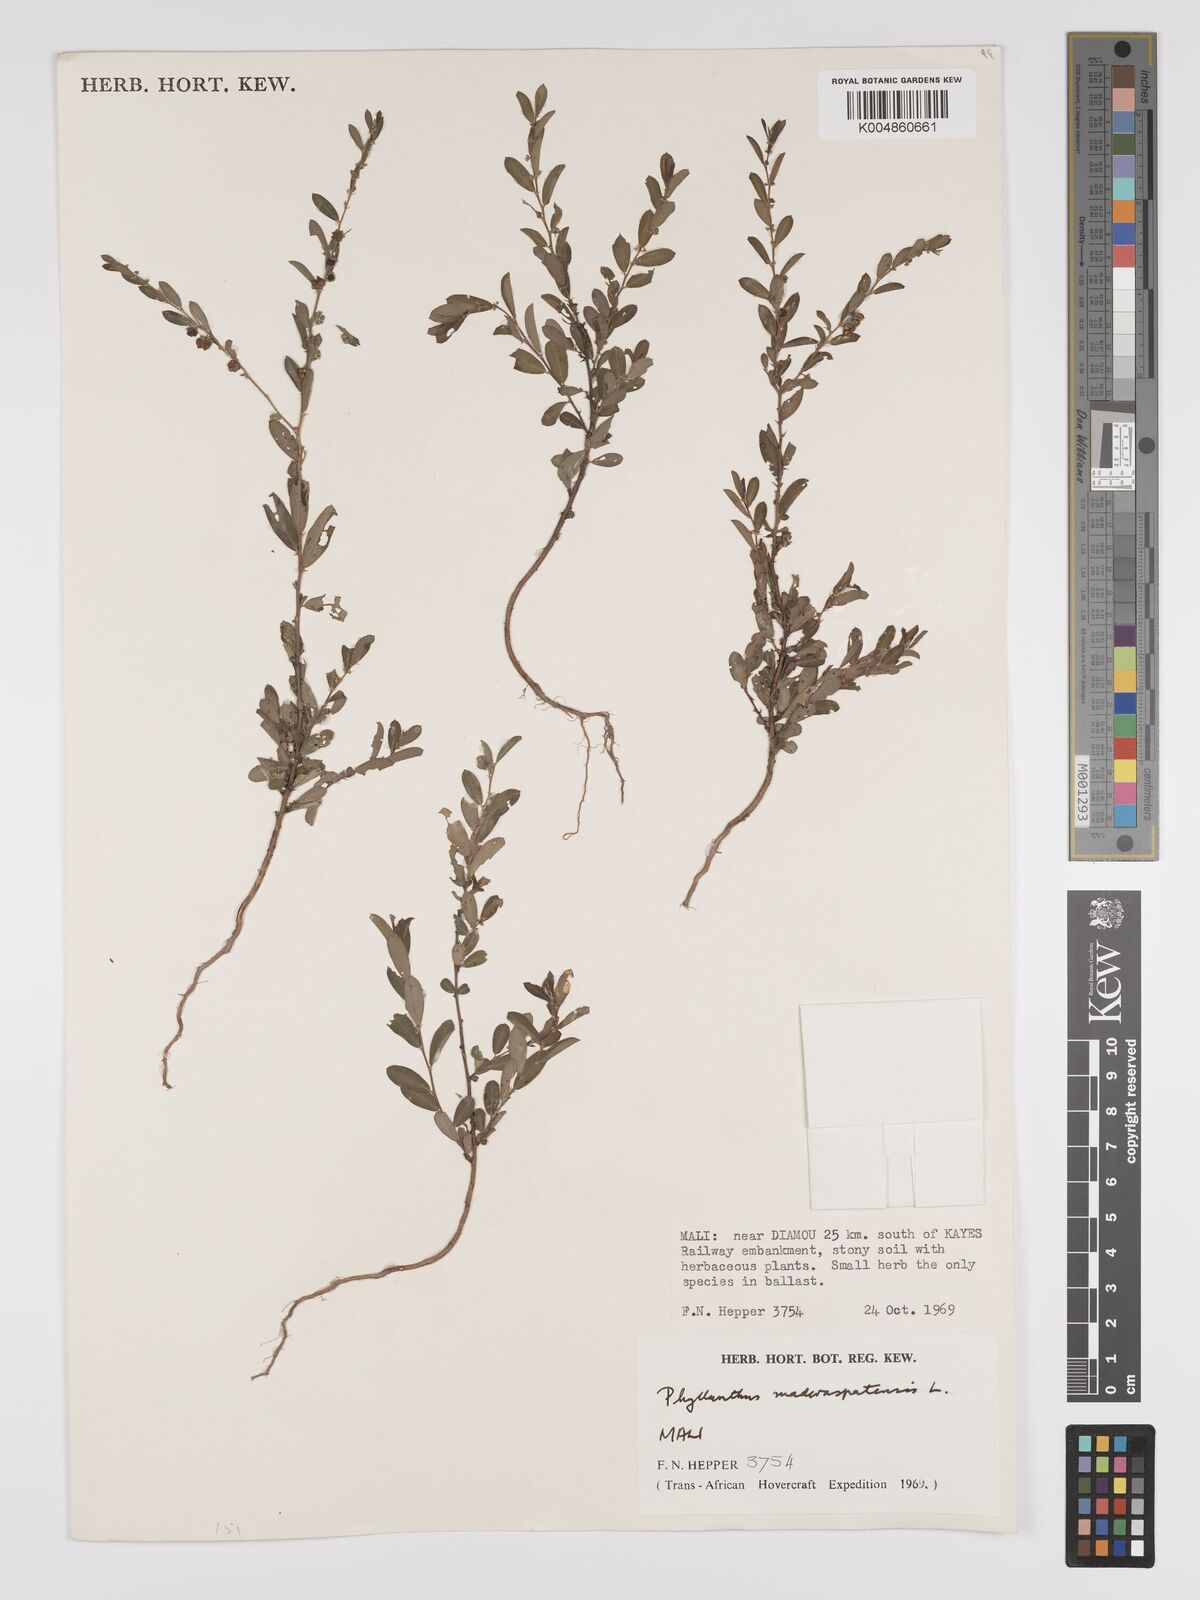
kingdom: Plantae
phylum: Tracheophyta
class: Magnoliopsida
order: Malpighiales
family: Phyllanthaceae
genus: Phyllanthus
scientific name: Phyllanthus
